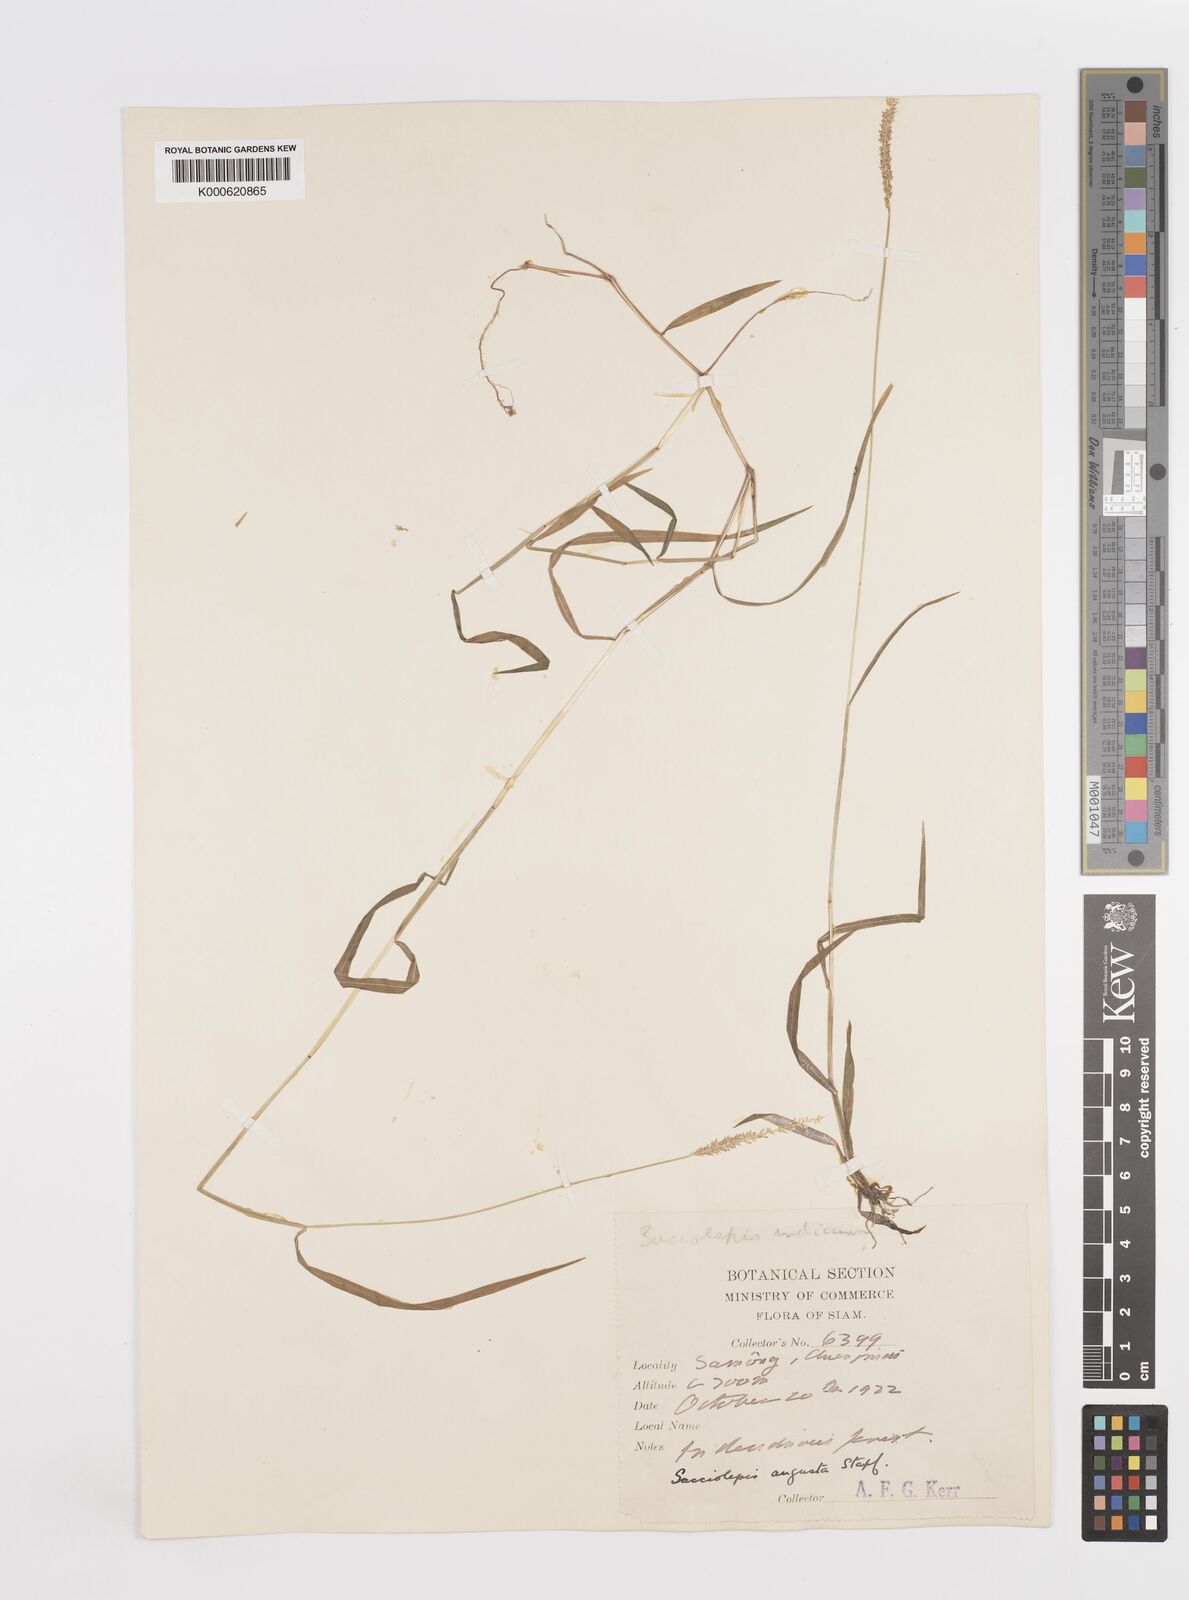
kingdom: Plantae
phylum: Tracheophyta
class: Liliopsida
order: Poales
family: Poaceae
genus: Sacciolepis
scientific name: Sacciolepis indica
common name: Glenwoodgrass
